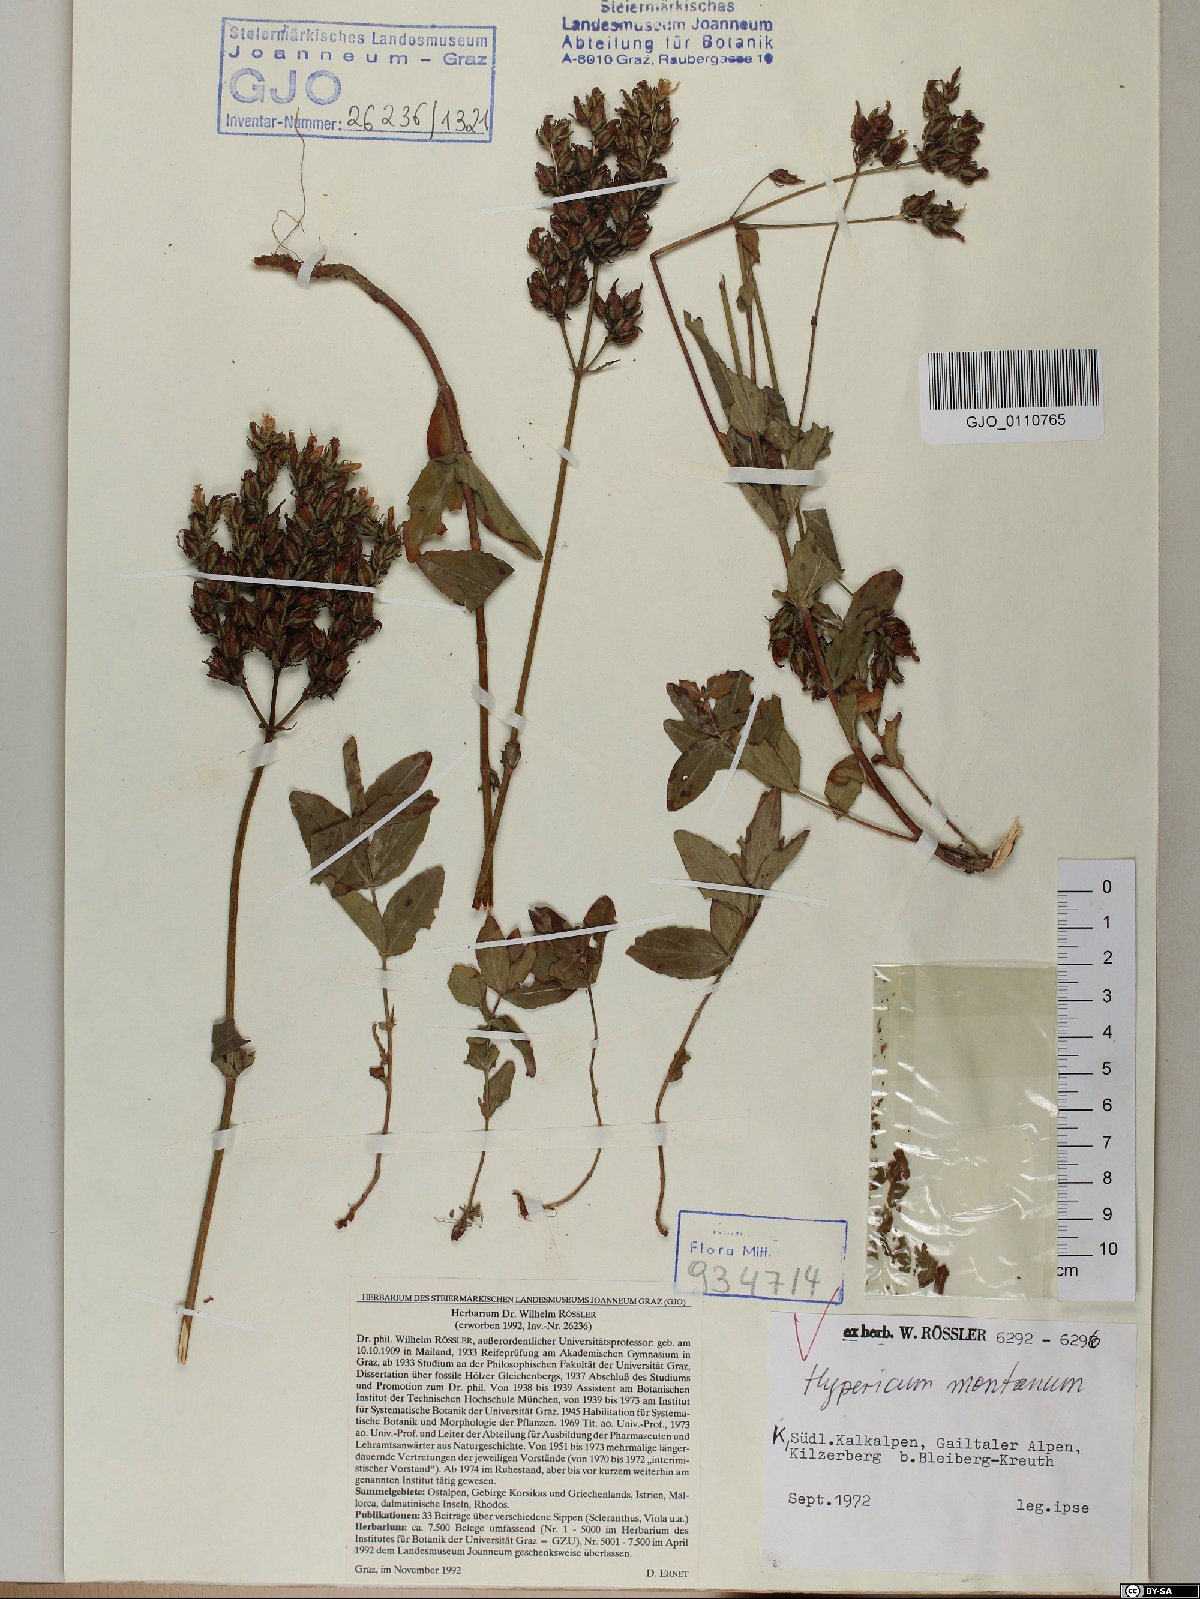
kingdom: Plantae
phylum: Tracheophyta
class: Magnoliopsida
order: Malpighiales
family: Hypericaceae
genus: Hypericum
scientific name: Hypericum montanum
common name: Pale st. john's-wort
